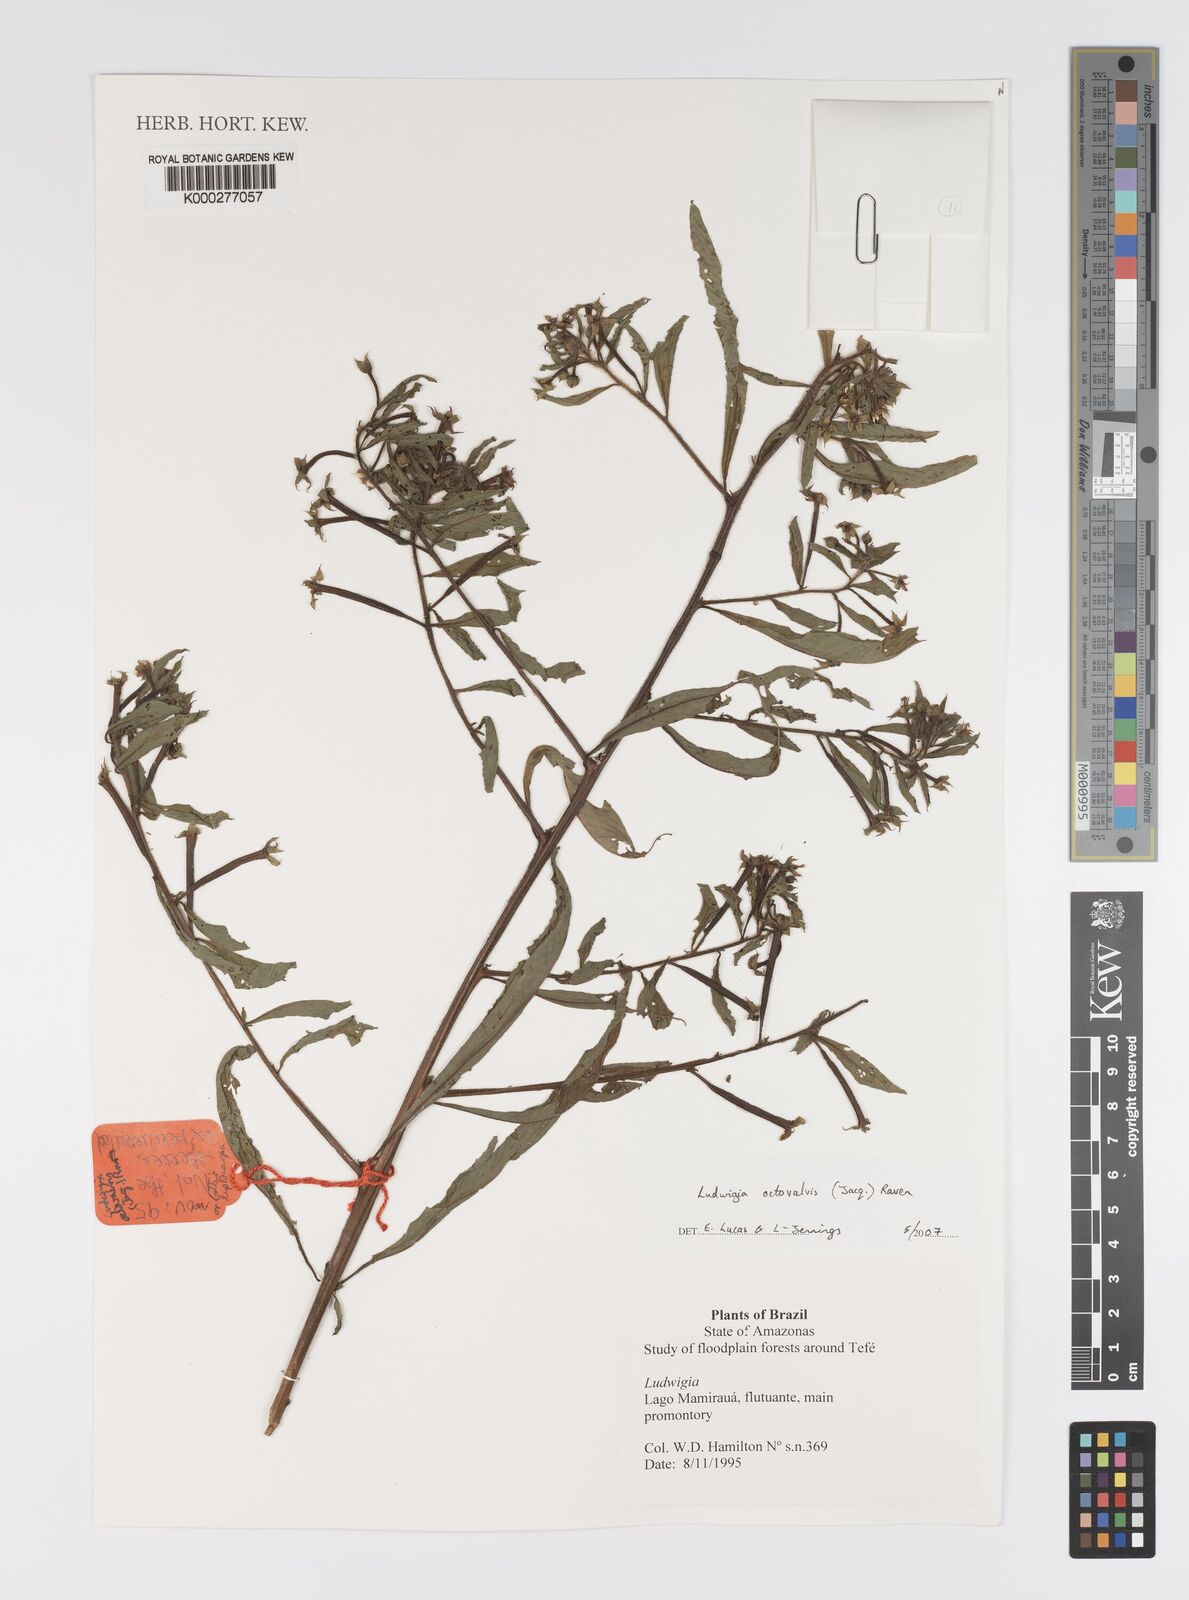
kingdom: Plantae
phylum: Tracheophyta
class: Magnoliopsida
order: Myrtales
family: Onagraceae
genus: Ludwigia
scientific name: Ludwigia octovalvis
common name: Water-primrose
